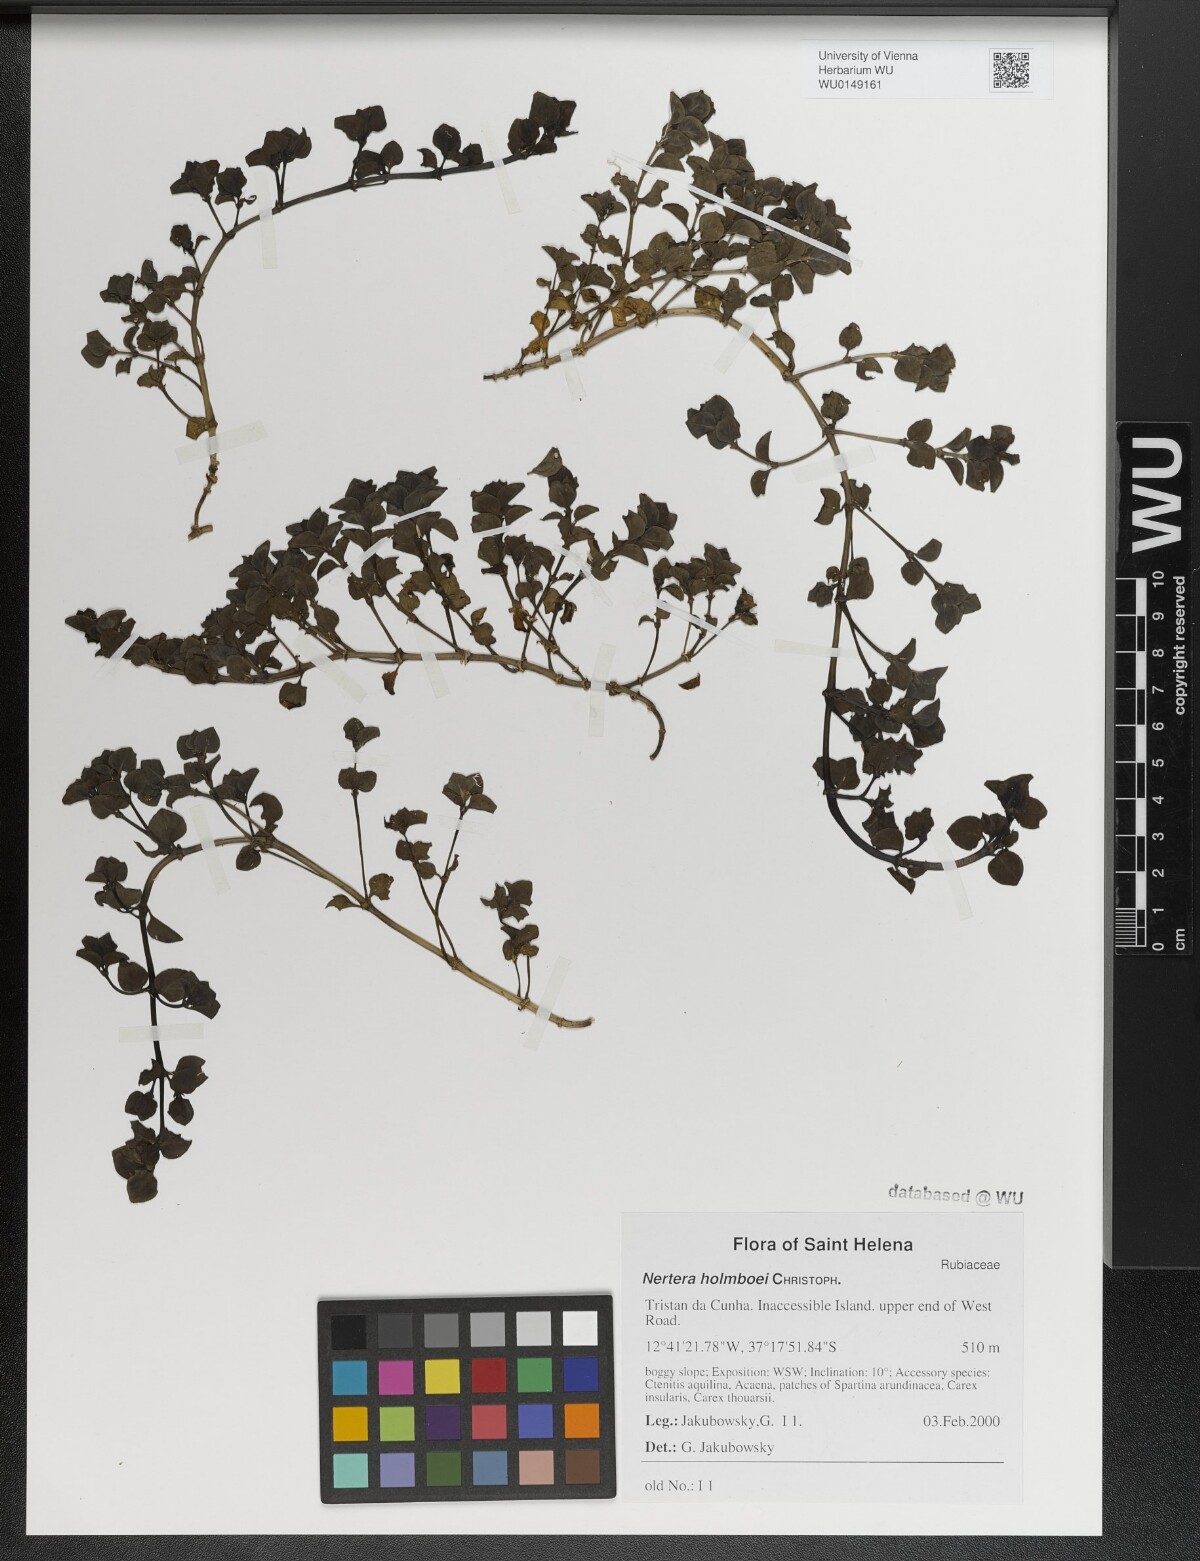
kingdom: Plantae
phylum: Tracheophyta
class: Magnoliopsida
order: Gentianales
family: Rubiaceae
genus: Nertera
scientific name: Nertera holmboei
